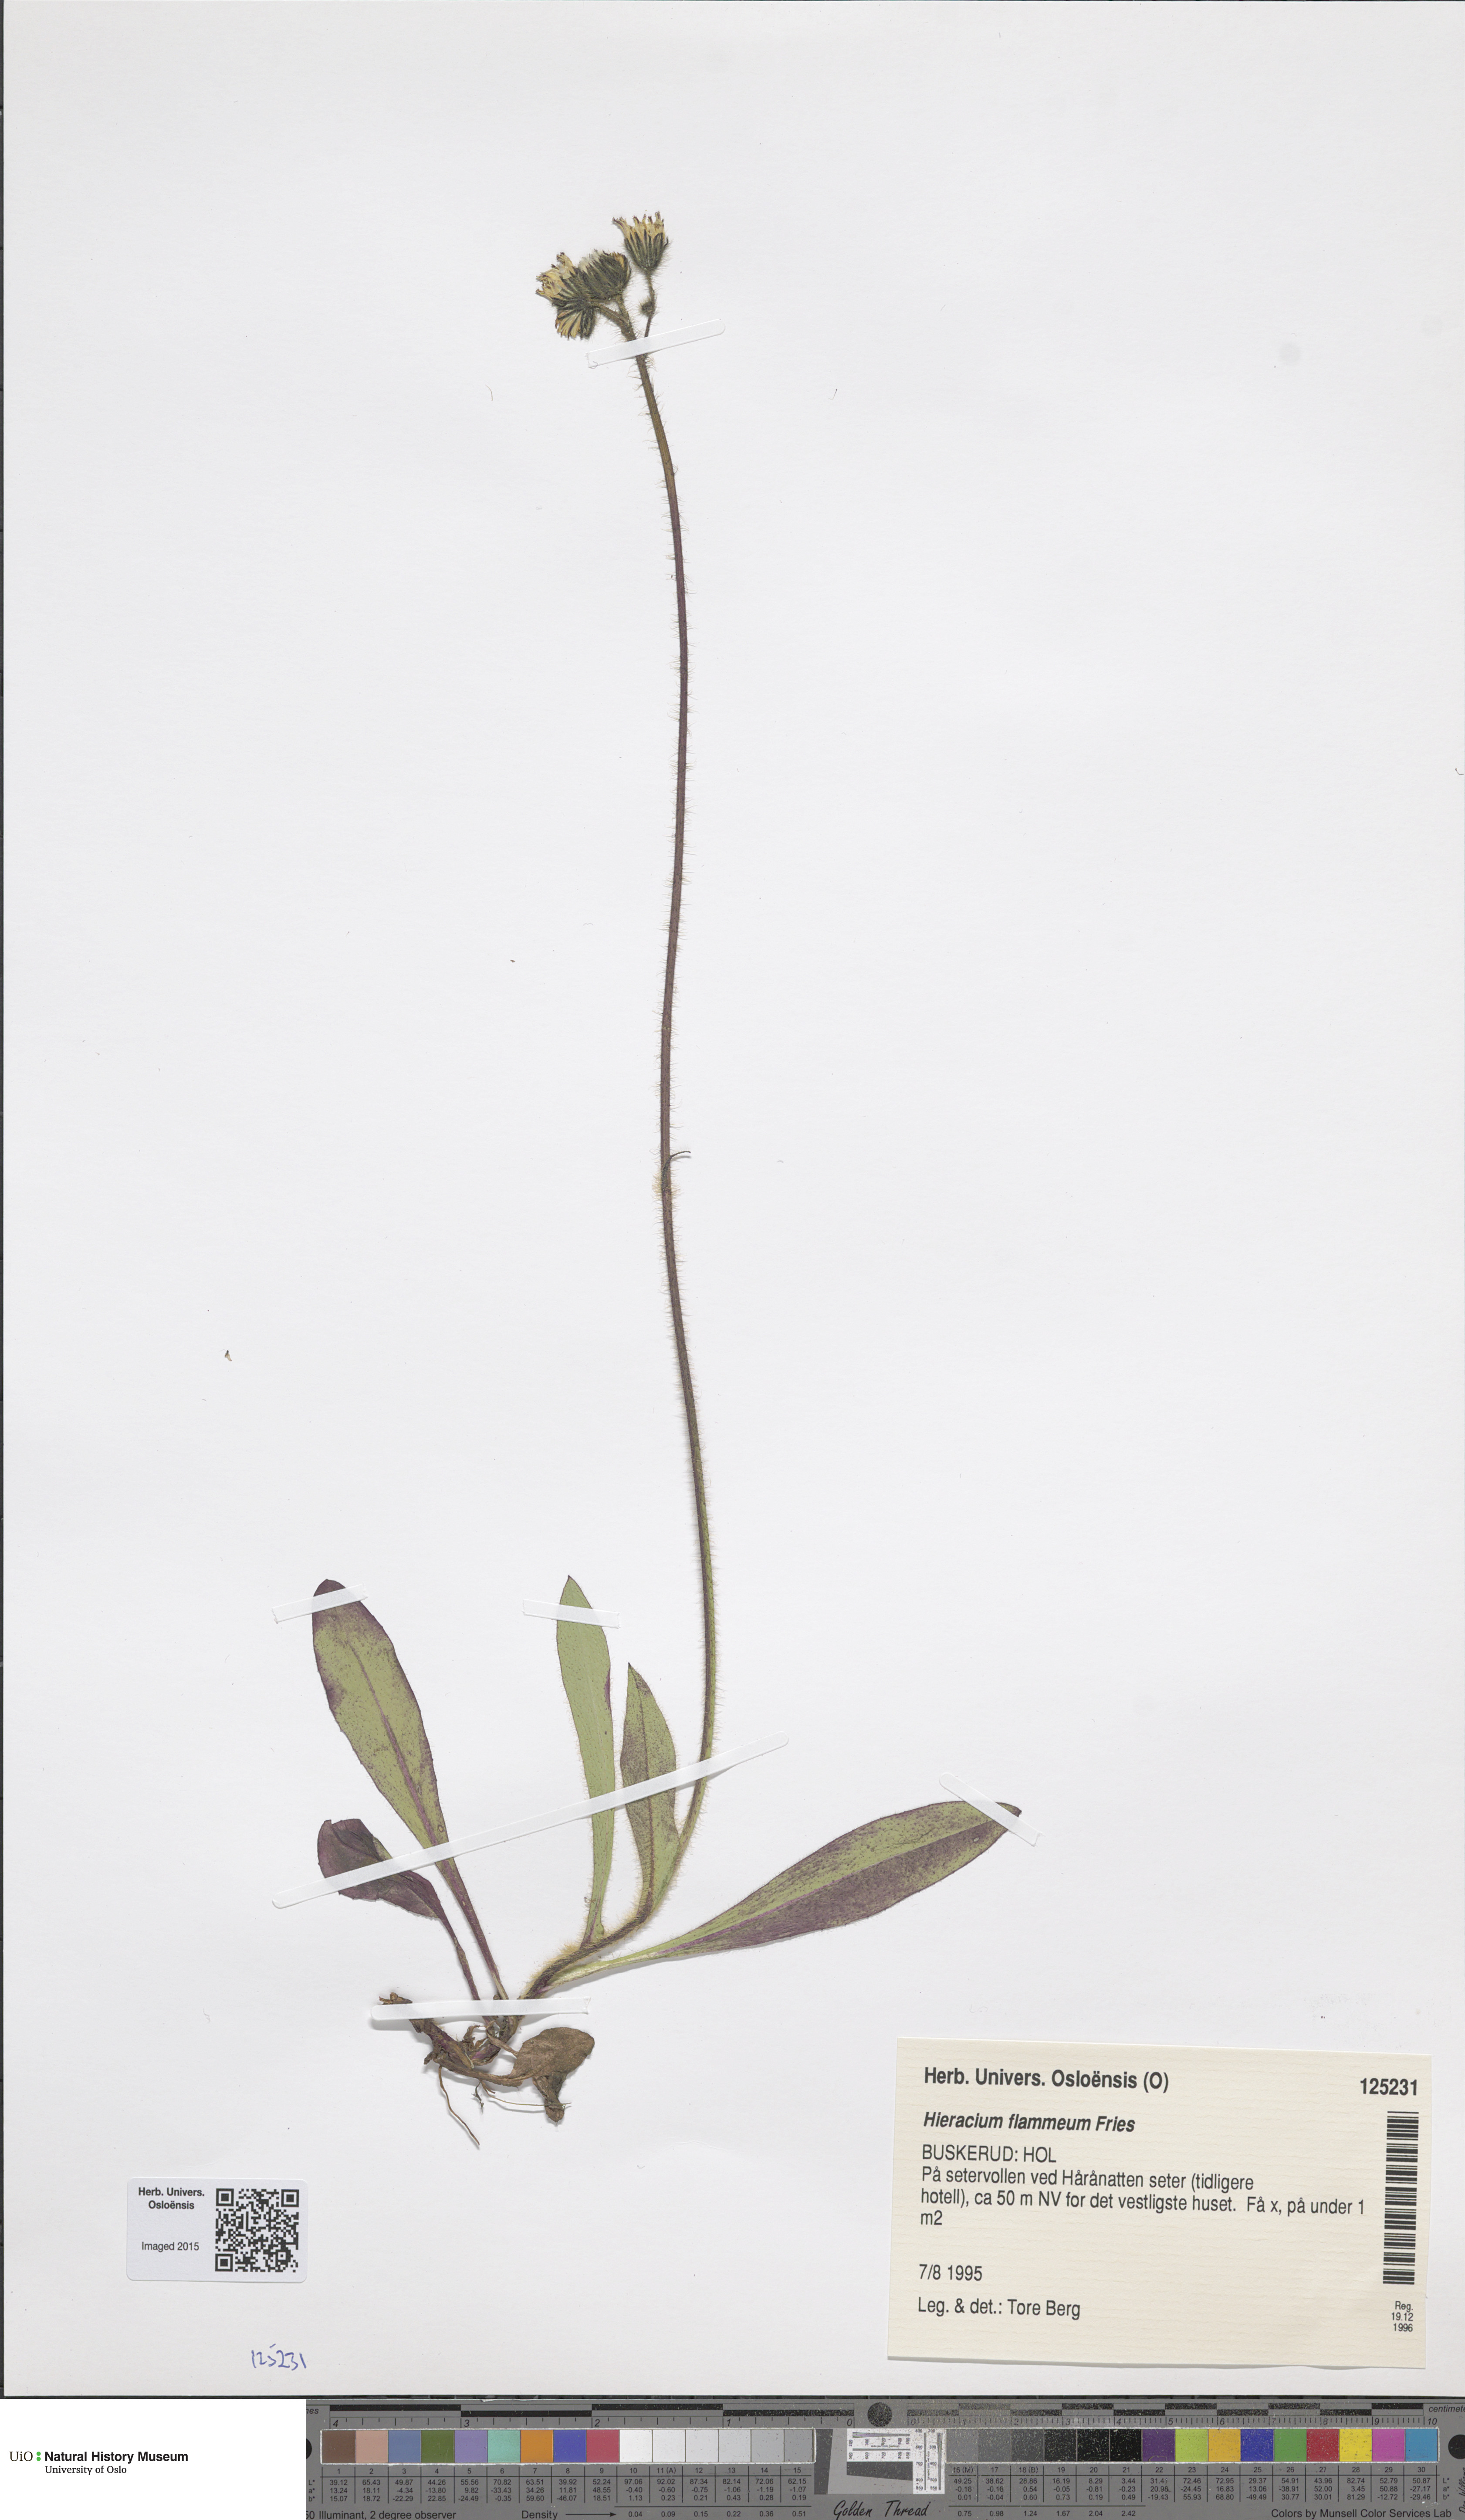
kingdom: Plantae
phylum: Tracheophyta
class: Magnoliopsida
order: Asterales
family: Asteraceae
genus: Pilosella
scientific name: Pilosella fuscoatra
